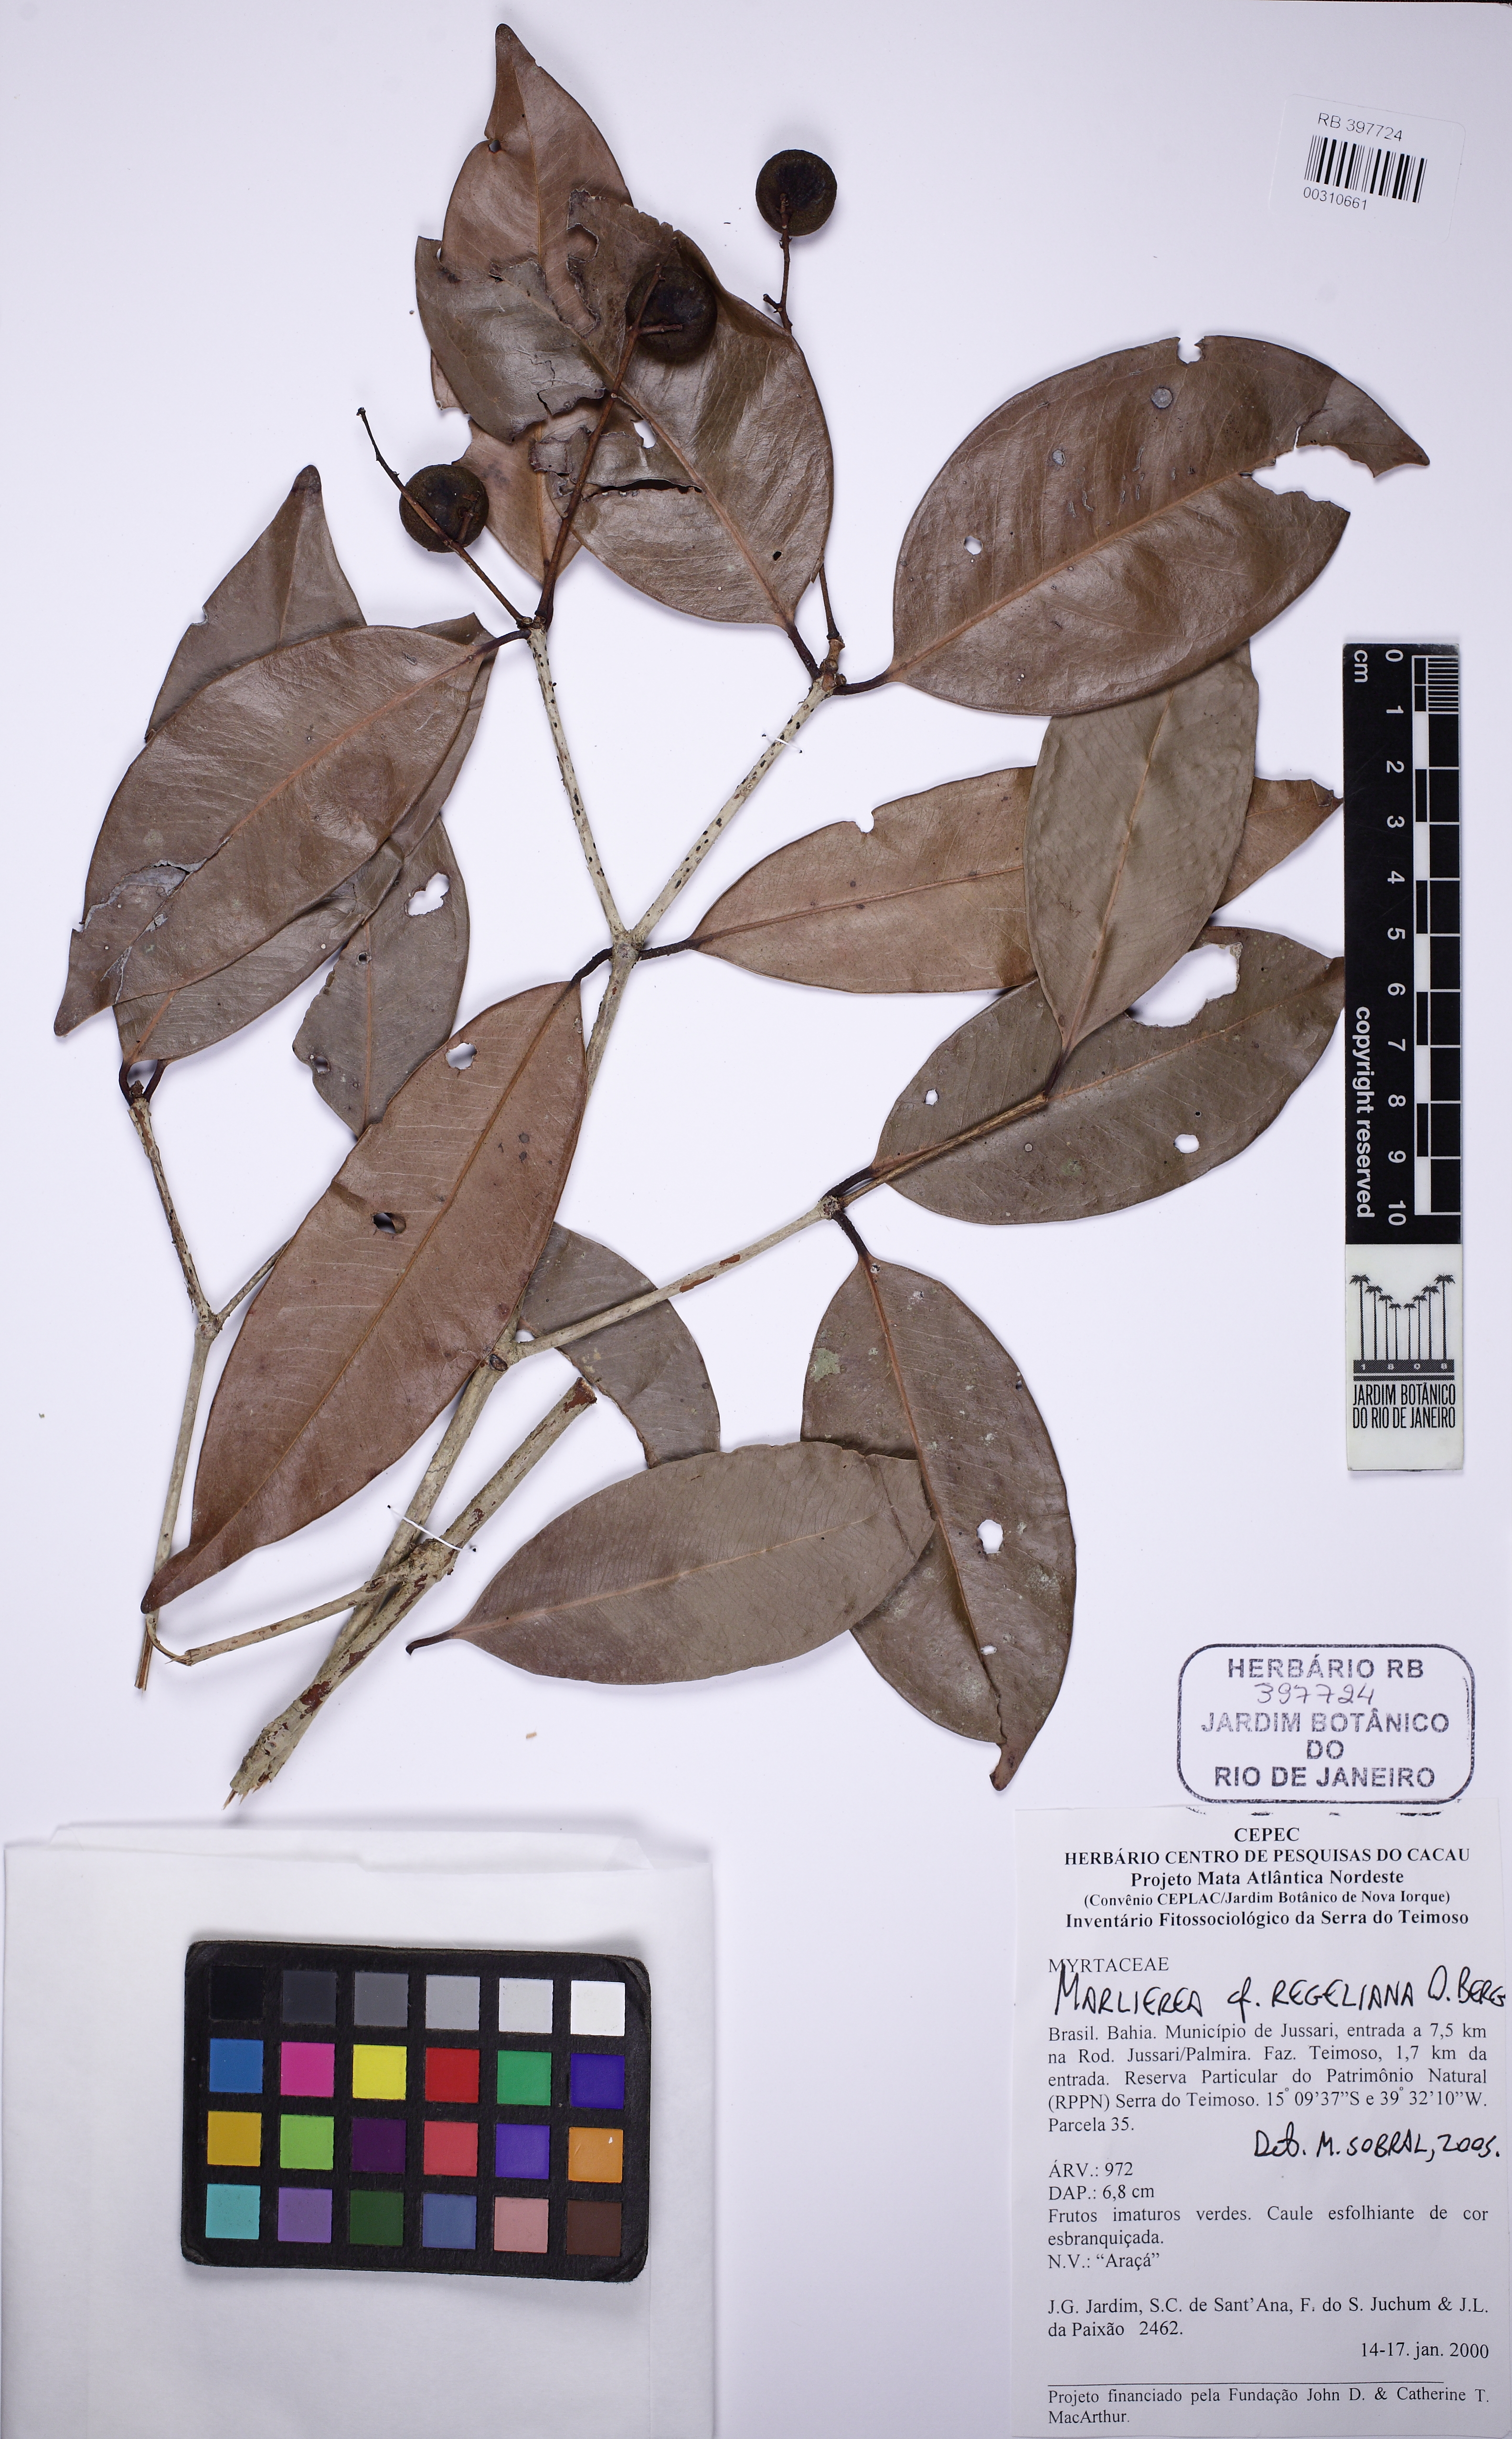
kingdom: Plantae
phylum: Tracheophyta
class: Magnoliopsida
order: Myrtales
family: Myrtaceae
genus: Myrcia
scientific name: Myrcia vellozoi
